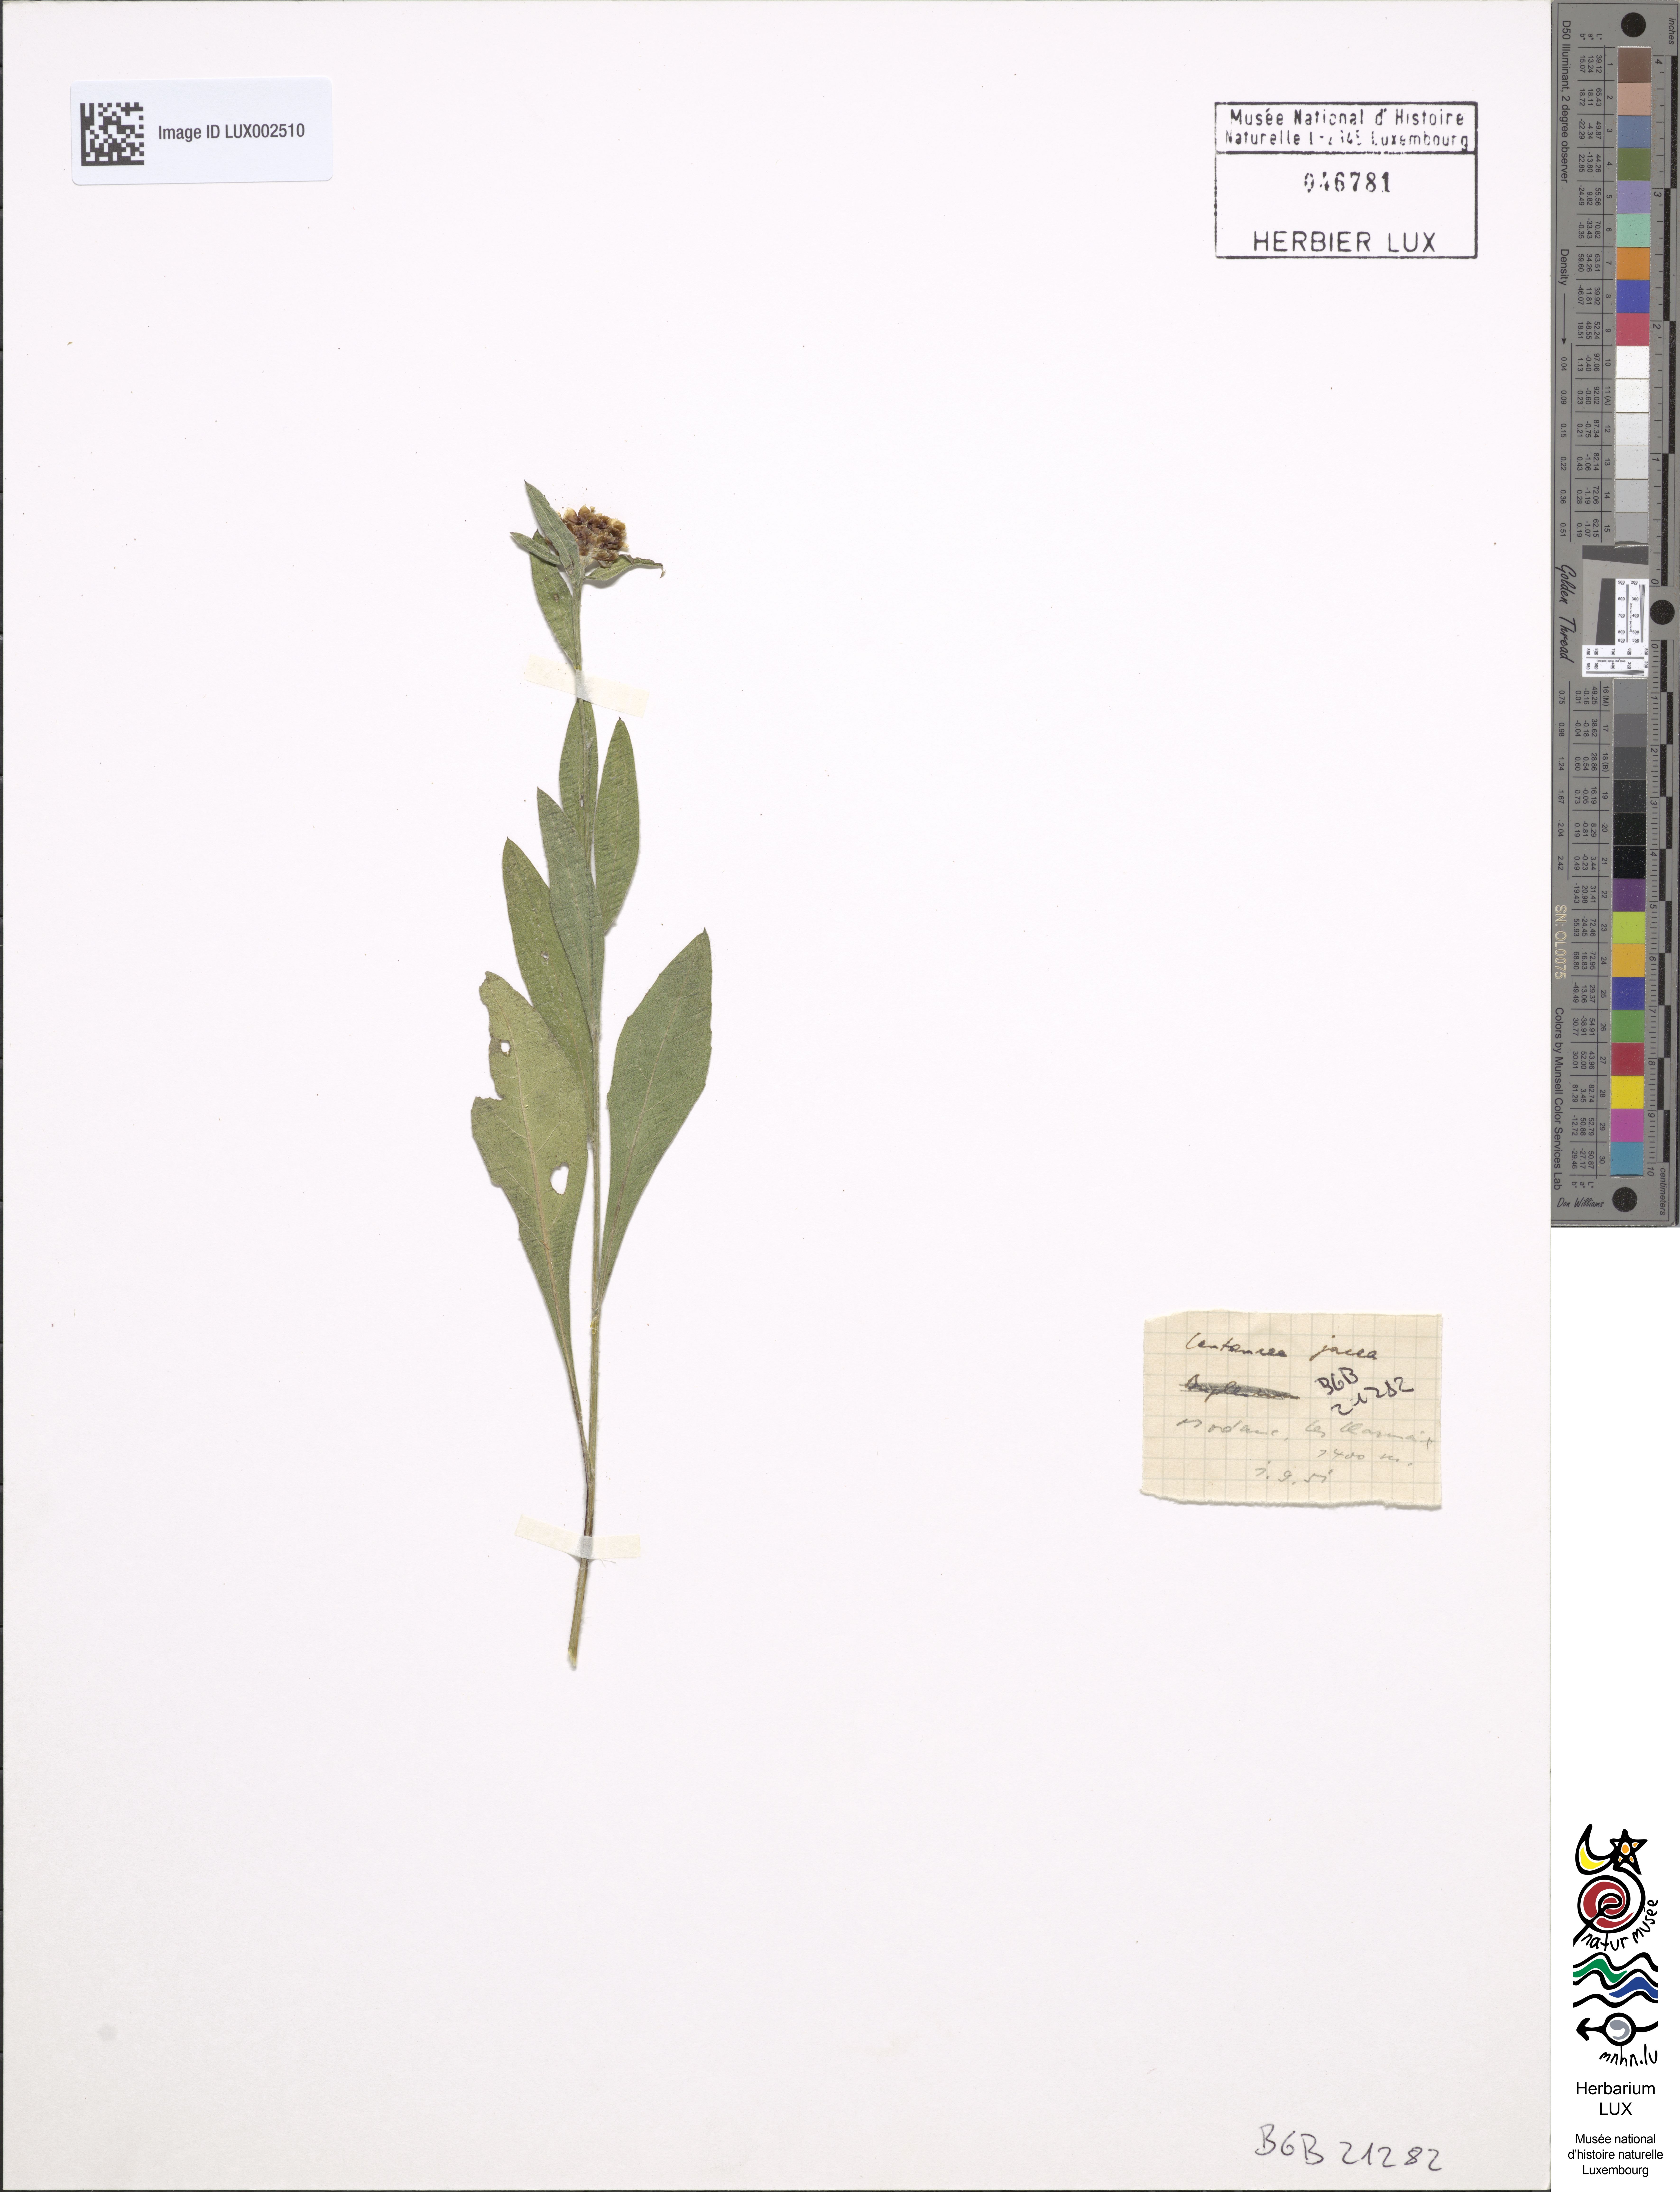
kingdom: Plantae
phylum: Tracheophyta
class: Magnoliopsida
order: Asterales
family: Asteraceae
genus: Centaurea
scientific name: Centaurea jacea
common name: Brown knapweed
